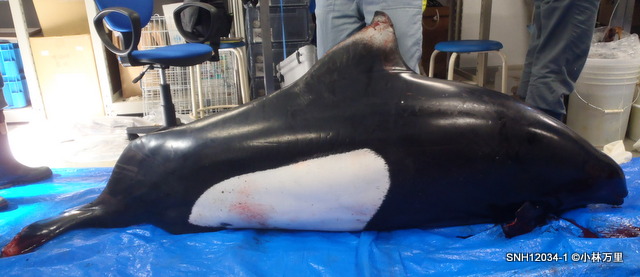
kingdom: Animalia
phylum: Chordata
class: Mammalia
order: Cetacea
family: Phocoenidae
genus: Phocoenoides
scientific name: Phocoenoides dalli
